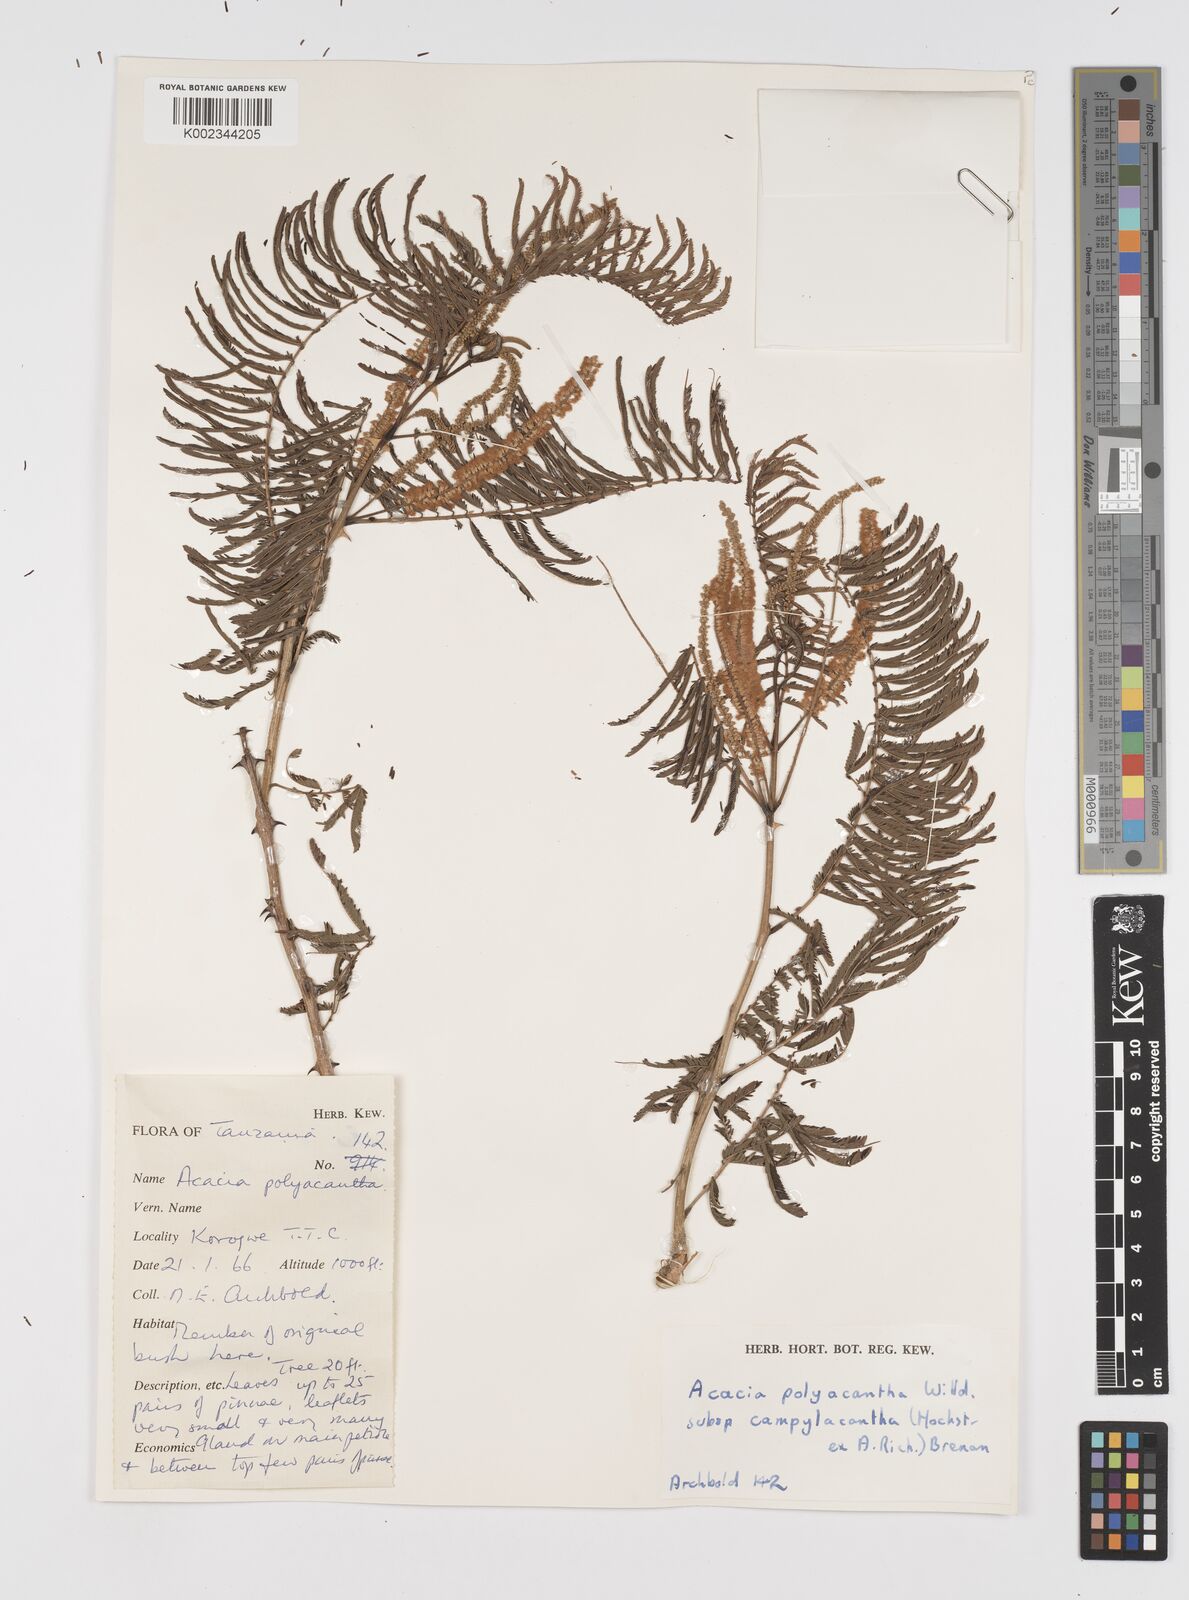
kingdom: Plantae
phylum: Tracheophyta
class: Magnoliopsida
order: Fabales
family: Fabaceae
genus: Senegalia
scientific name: Senegalia polyacantha
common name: Whitethorn
